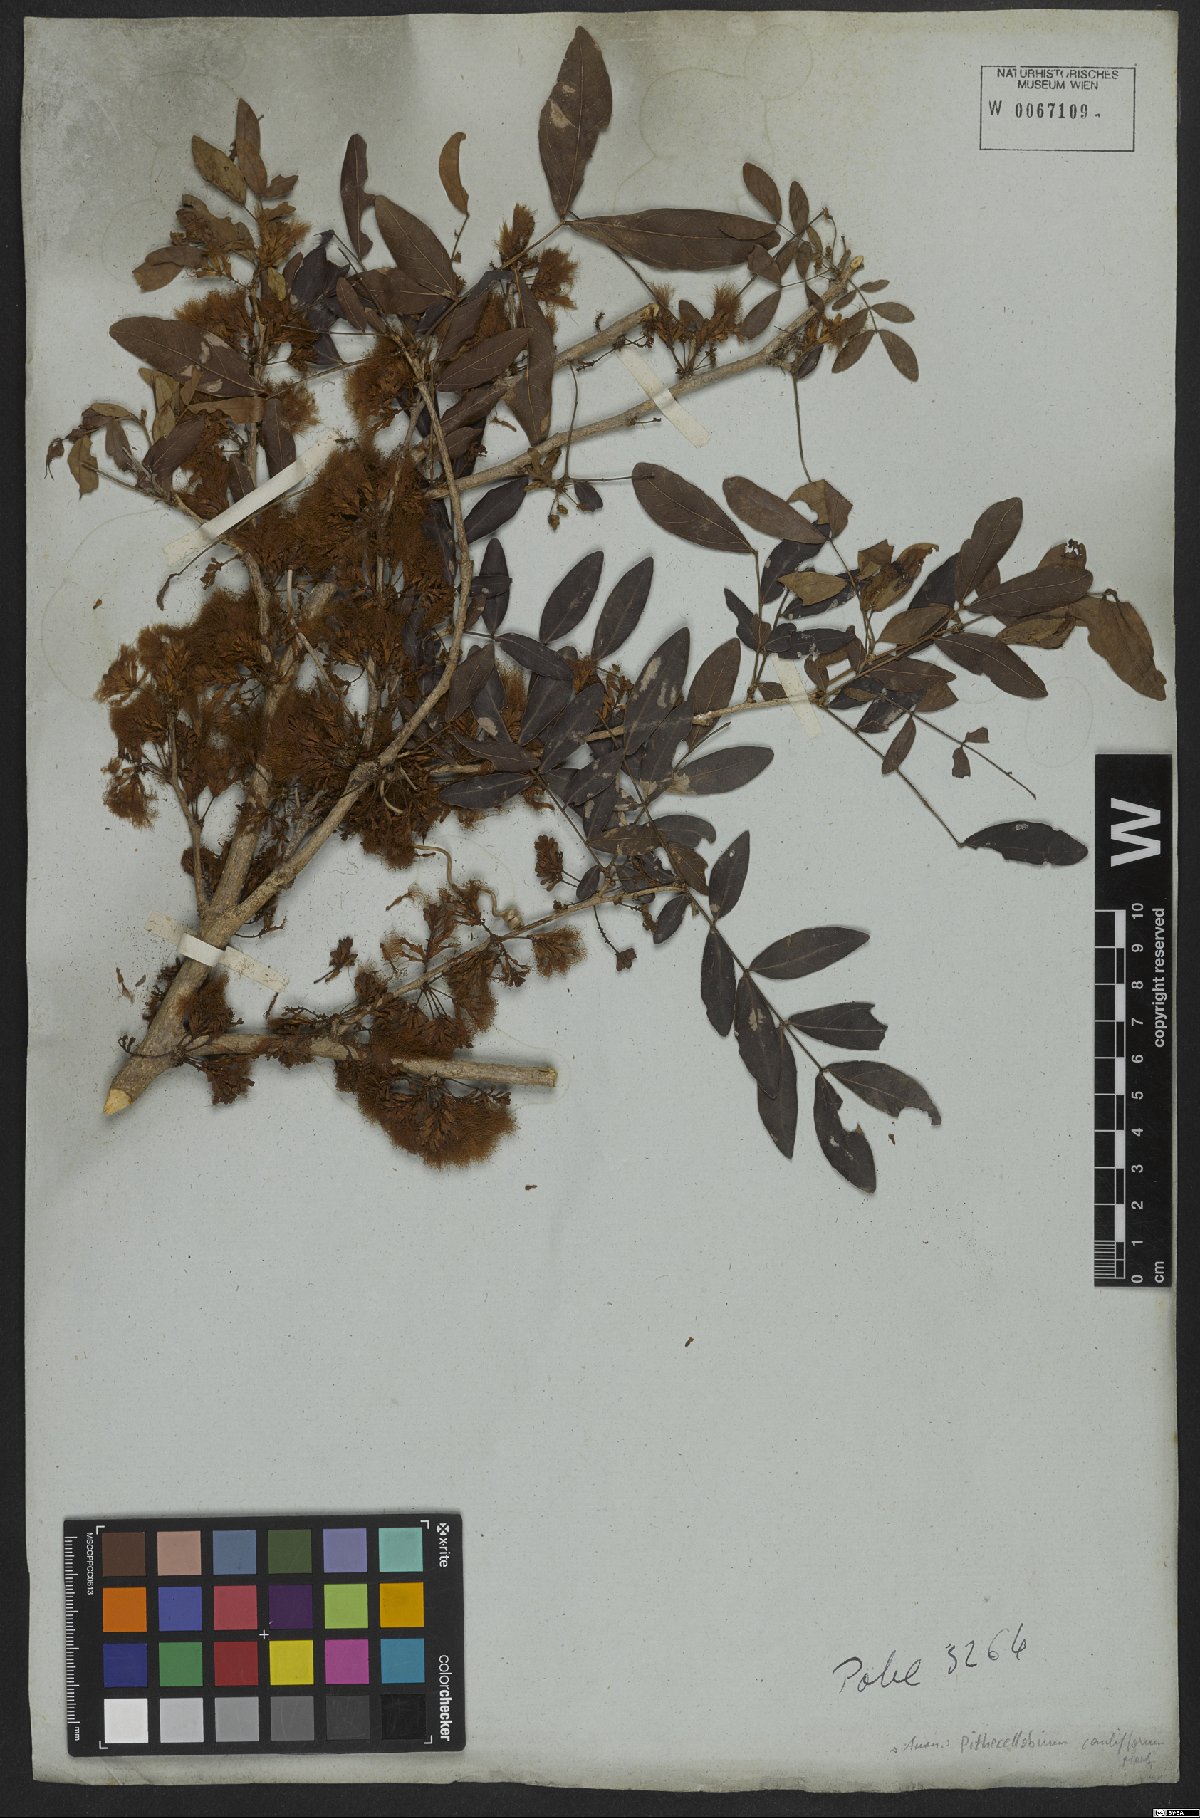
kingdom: Plantae
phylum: Tracheophyta
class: Magnoliopsida
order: Fabales
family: Fabaceae
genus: Zygia
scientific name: Zygia cauliflora
